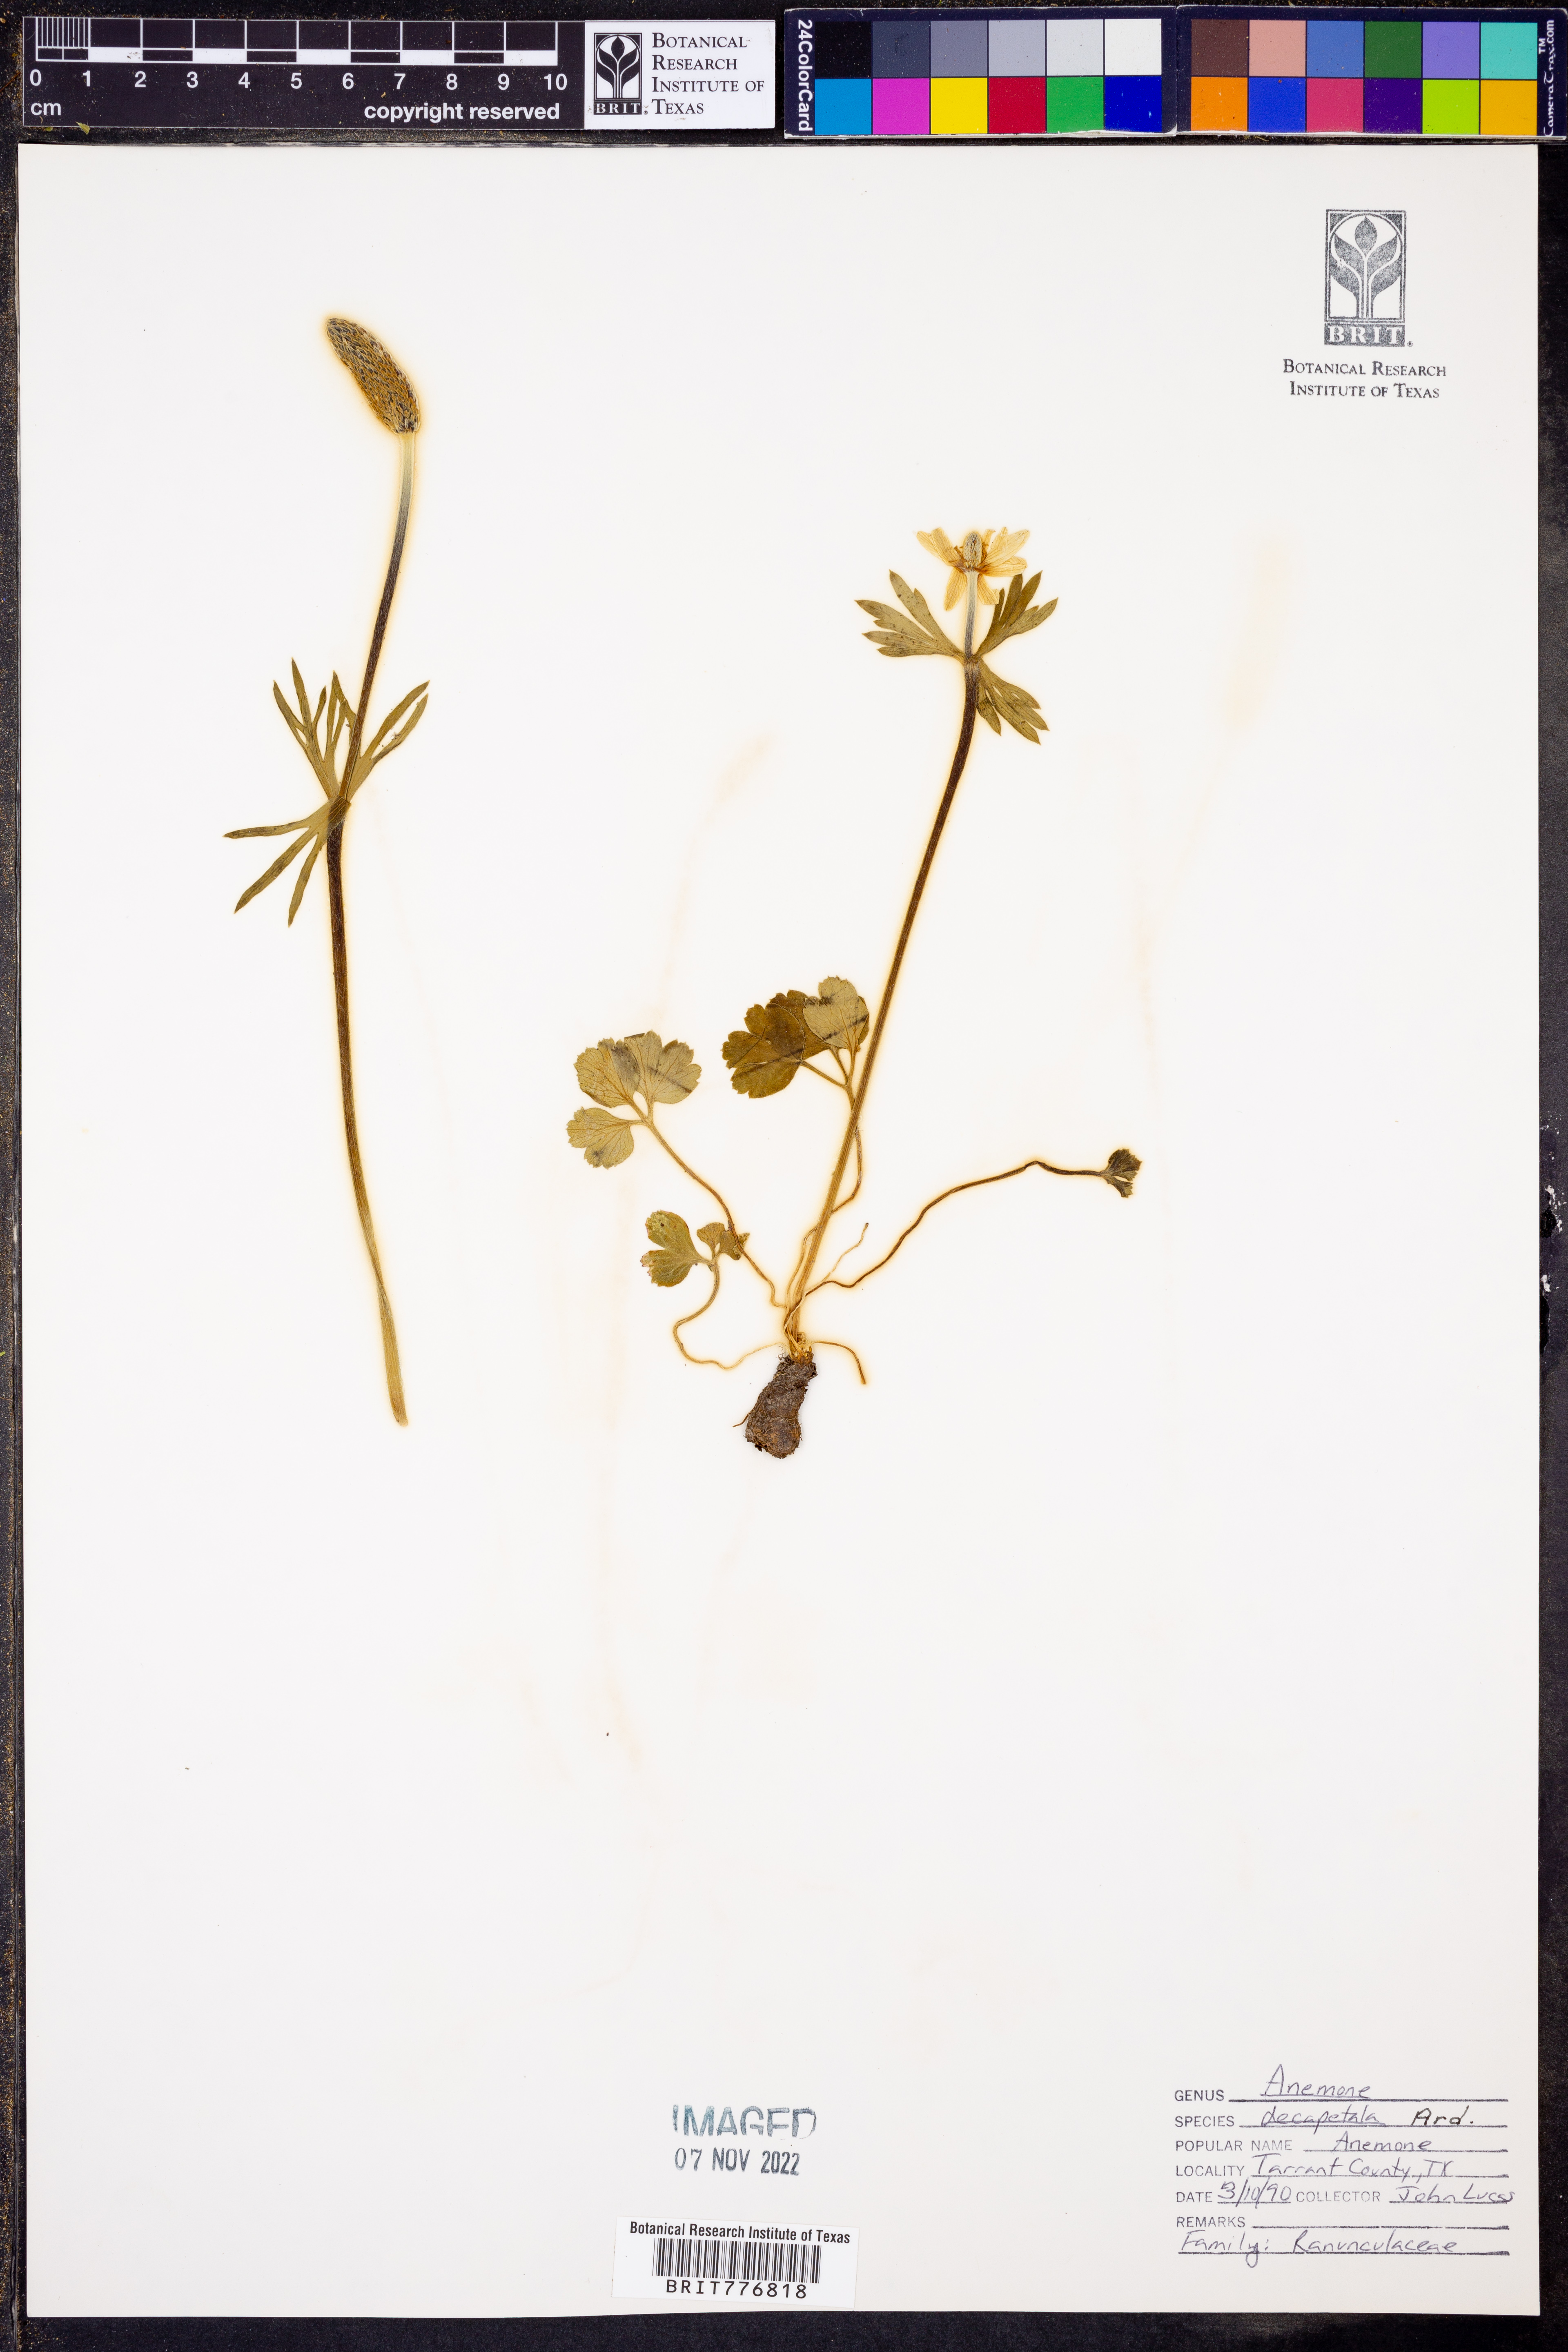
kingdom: Plantae
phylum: Tracheophyta
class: Magnoliopsida
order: Ranunculales
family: Ranunculaceae
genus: Anemone
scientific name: Anemone decapetala
